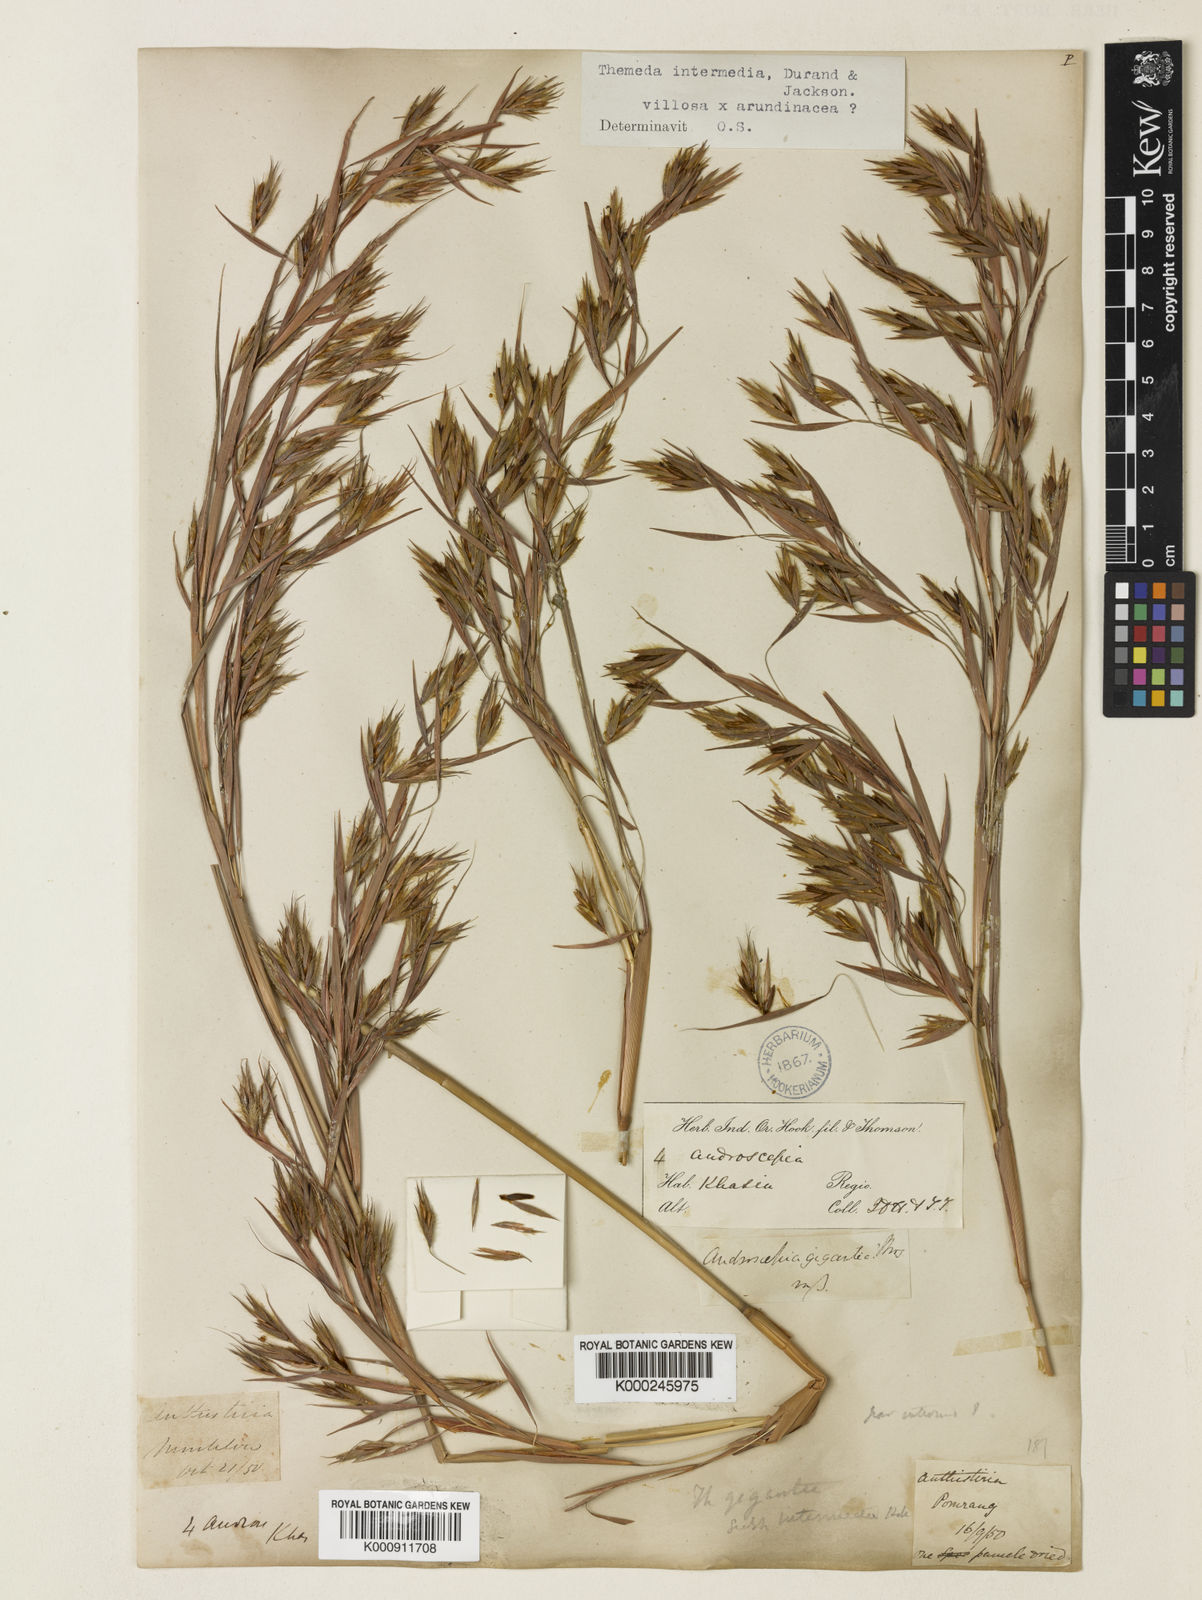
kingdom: Plantae
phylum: Tracheophyta
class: Liliopsida
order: Poales
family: Poaceae
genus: Themeda
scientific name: Themeda
